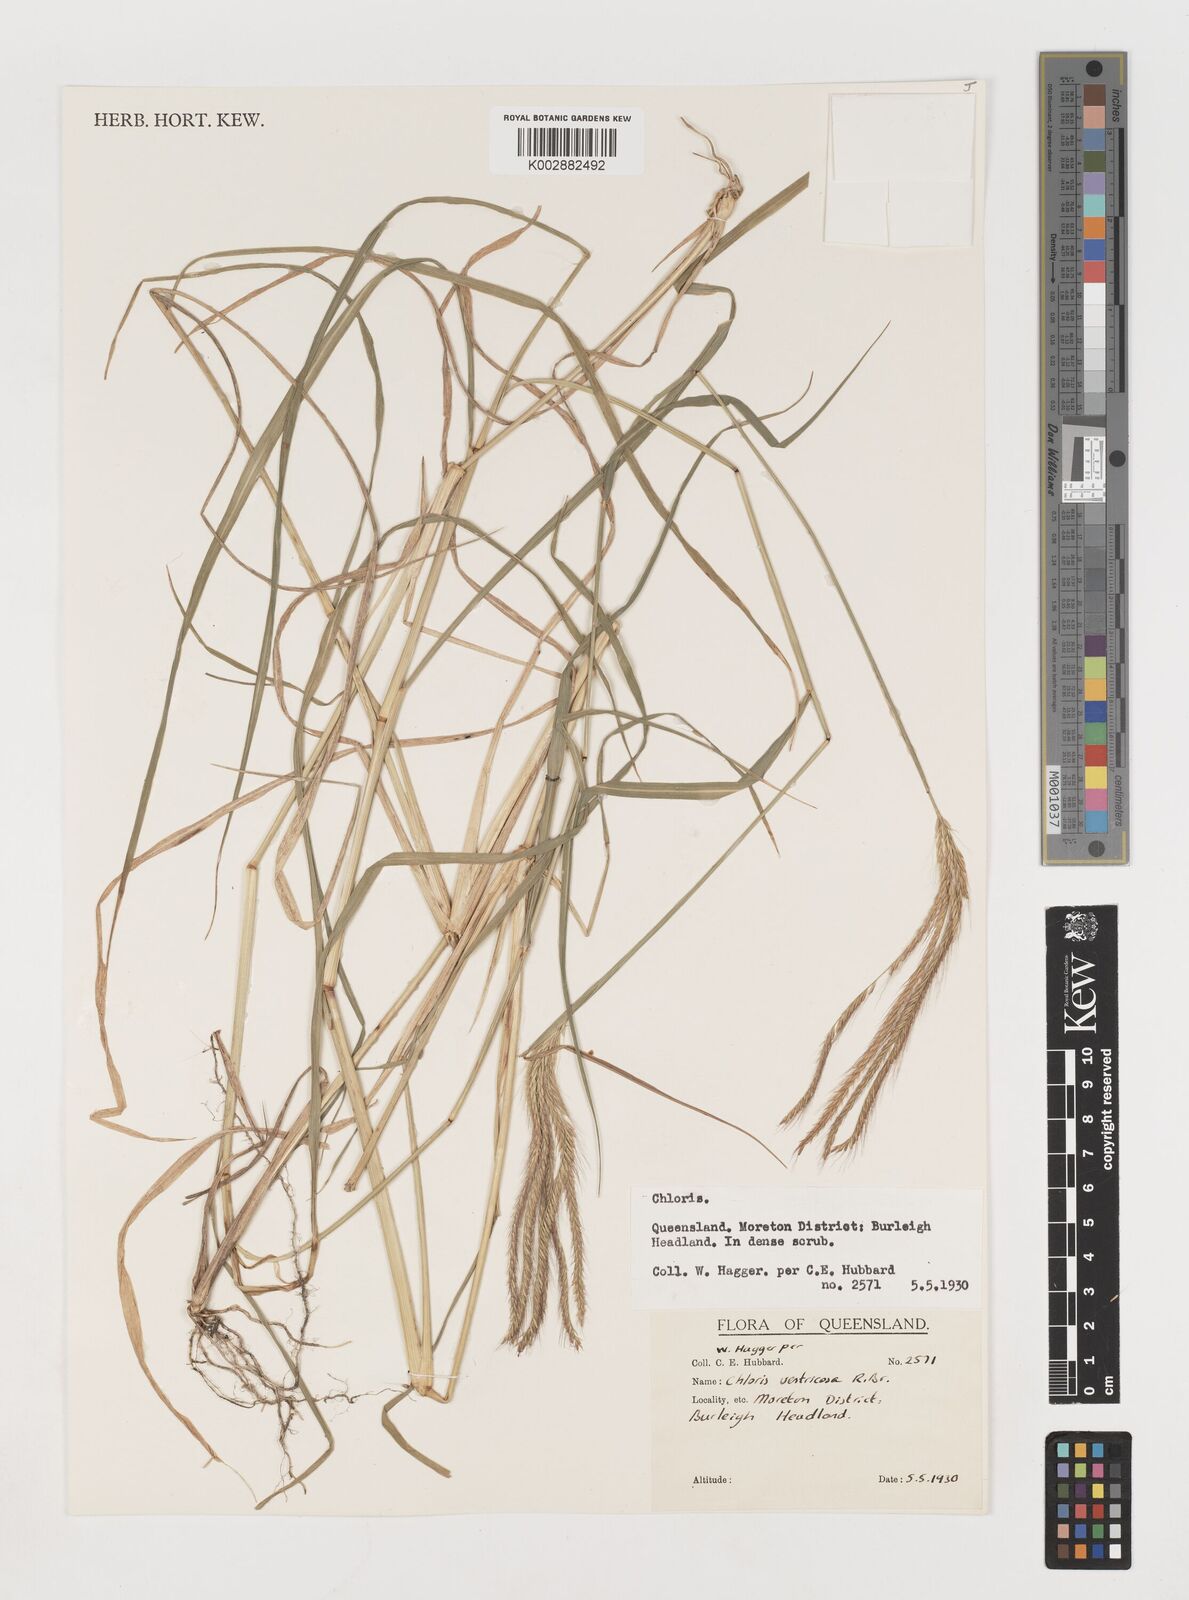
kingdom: Plantae
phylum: Tracheophyta
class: Liliopsida
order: Poales
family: Poaceae
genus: Chloris
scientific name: Chloris ventricosa
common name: Australian windmill grass
